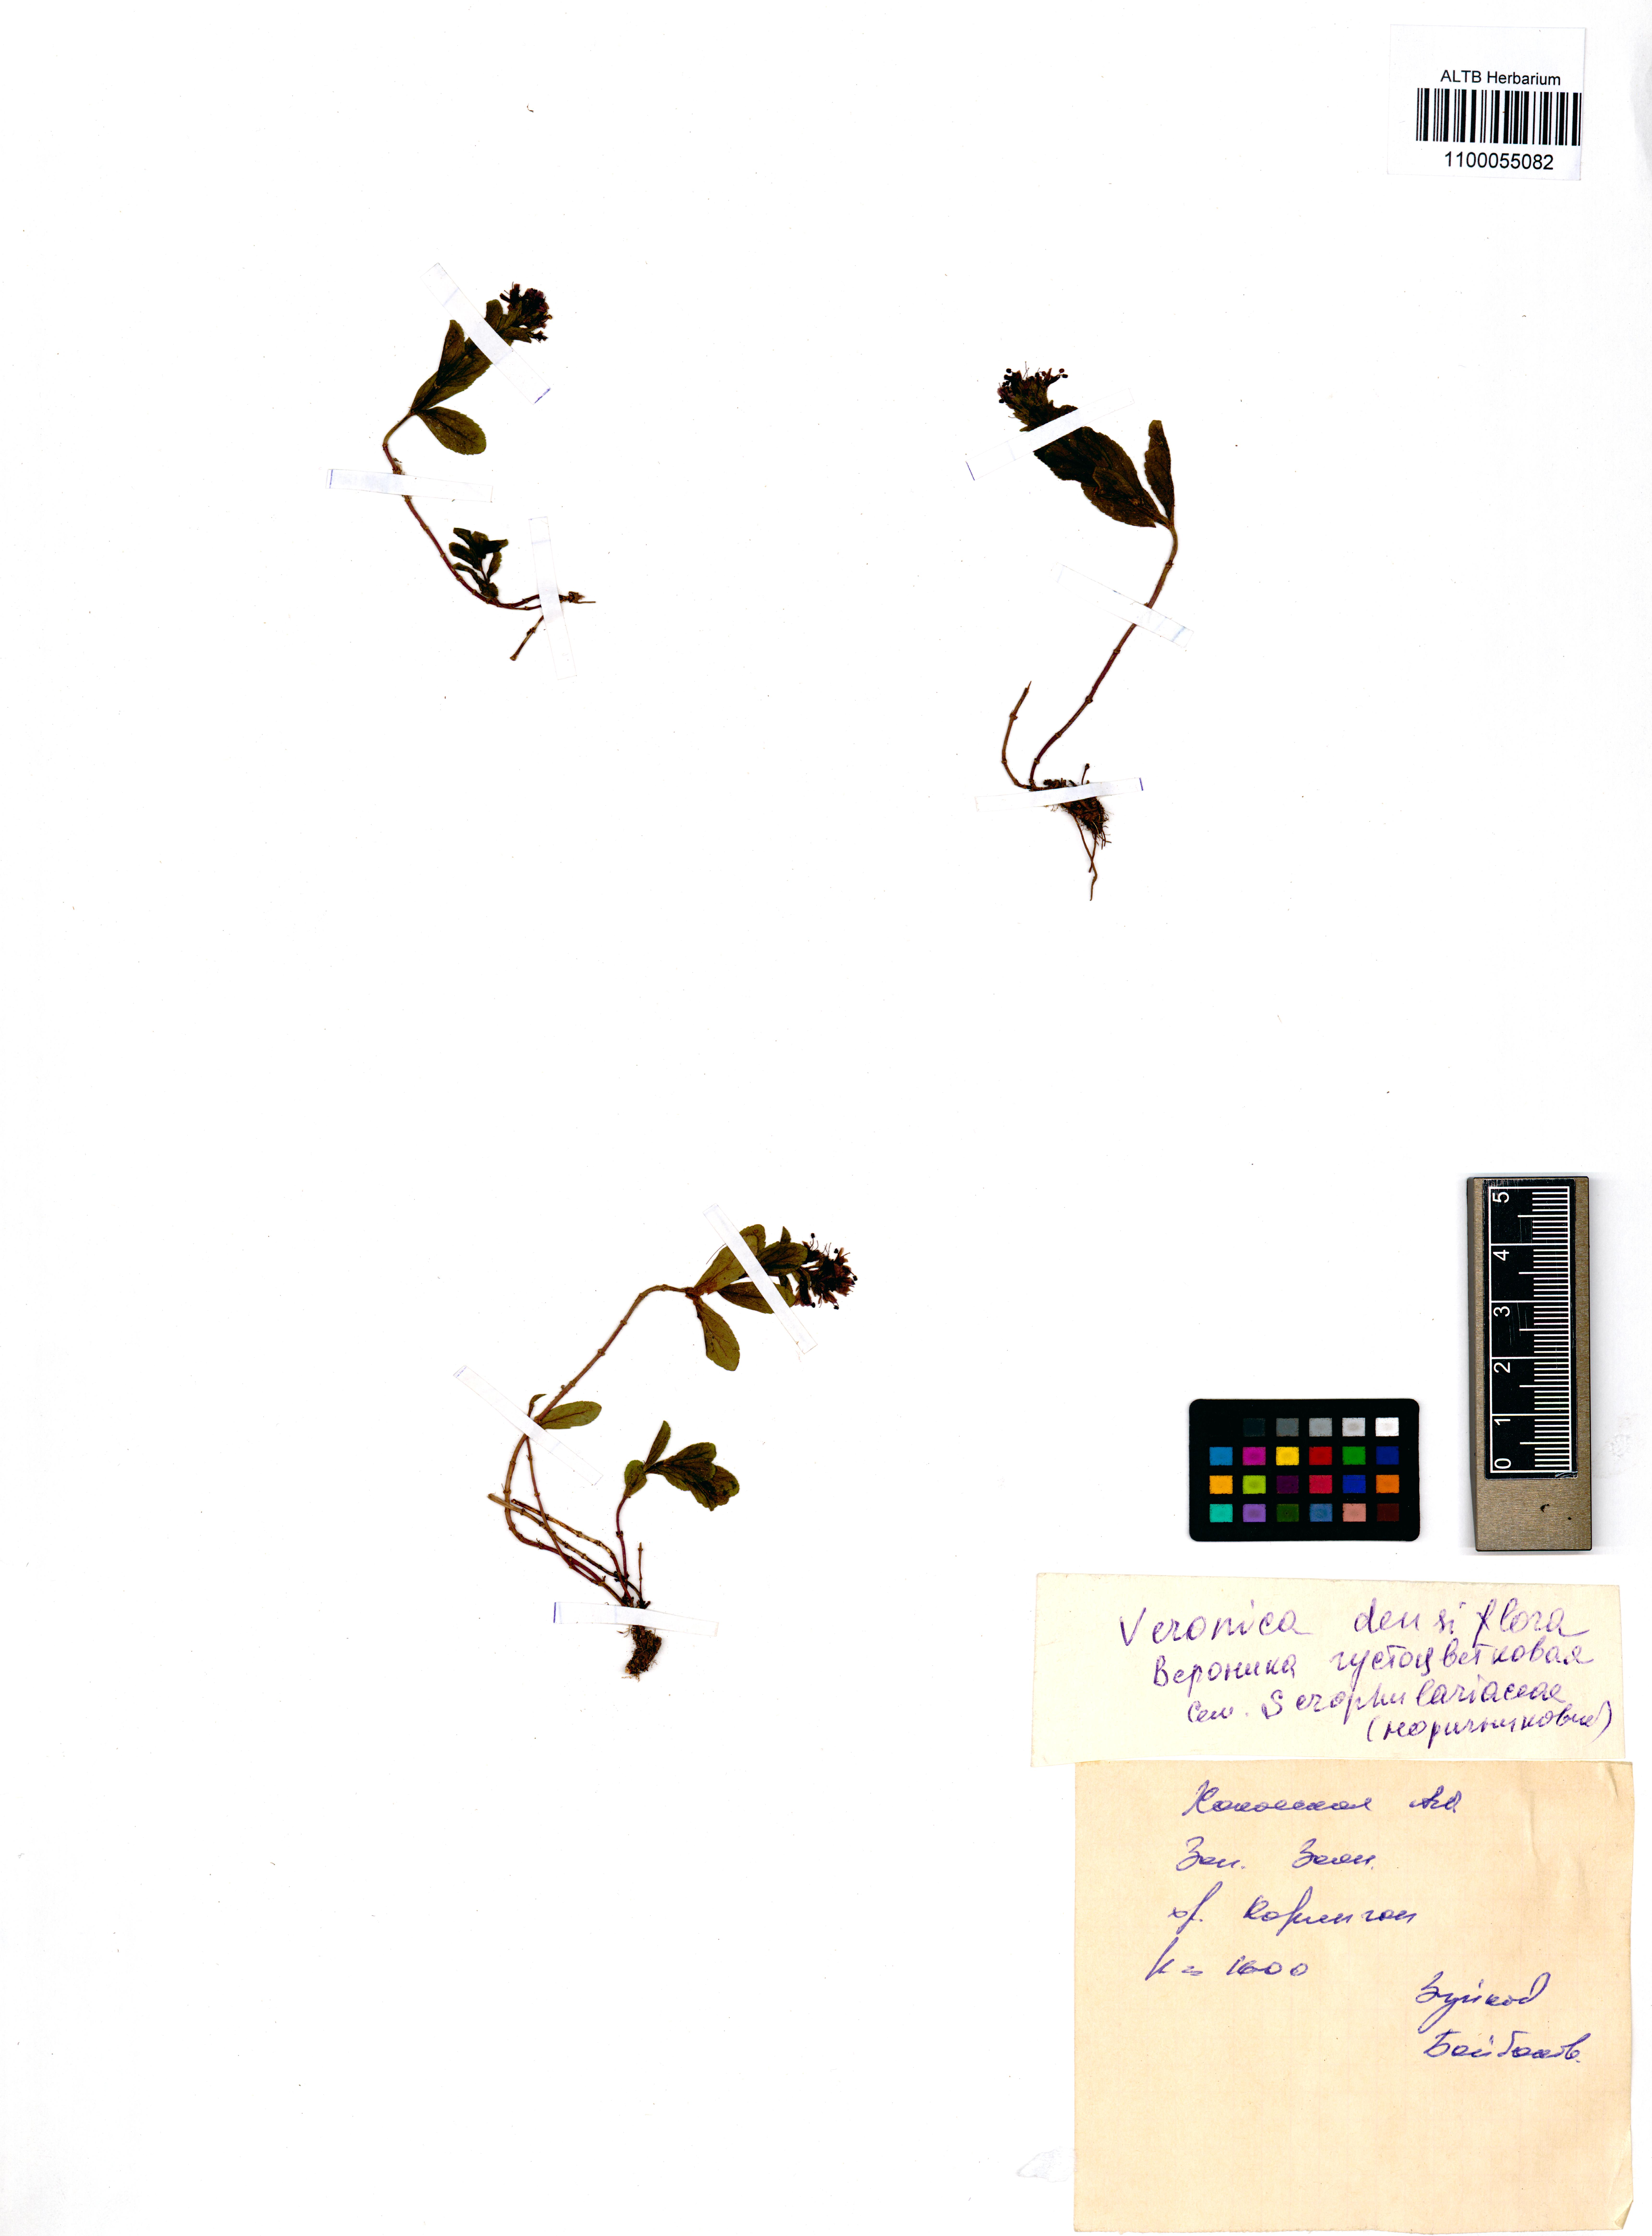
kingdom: Plantae
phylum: Tracheophyta
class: Magnoliopsida
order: Lamiales
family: Plantaginaceae
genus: Veronica
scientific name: Veronica densiflora
